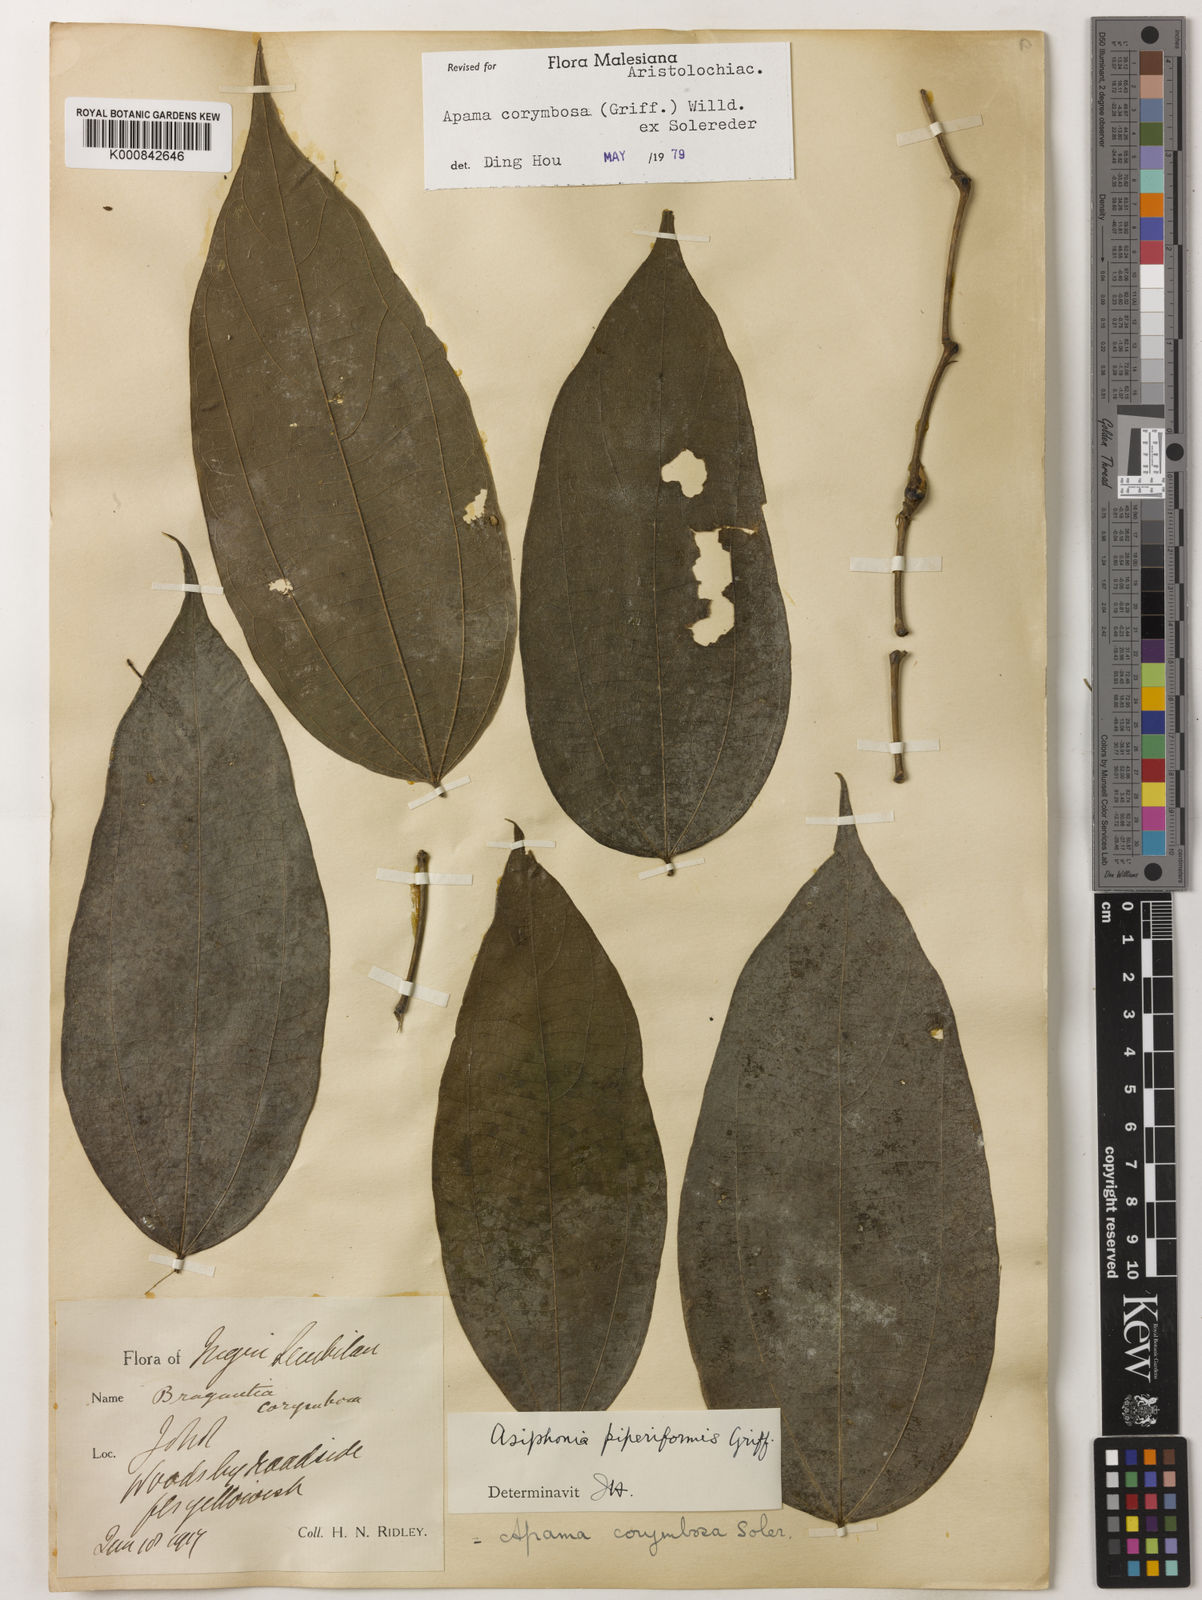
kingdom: Plantae
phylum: Tracheophyta
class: Magnoliopsida
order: Piperales
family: Aristolochiaceae
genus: Thottea
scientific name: Thottea piperiformis
